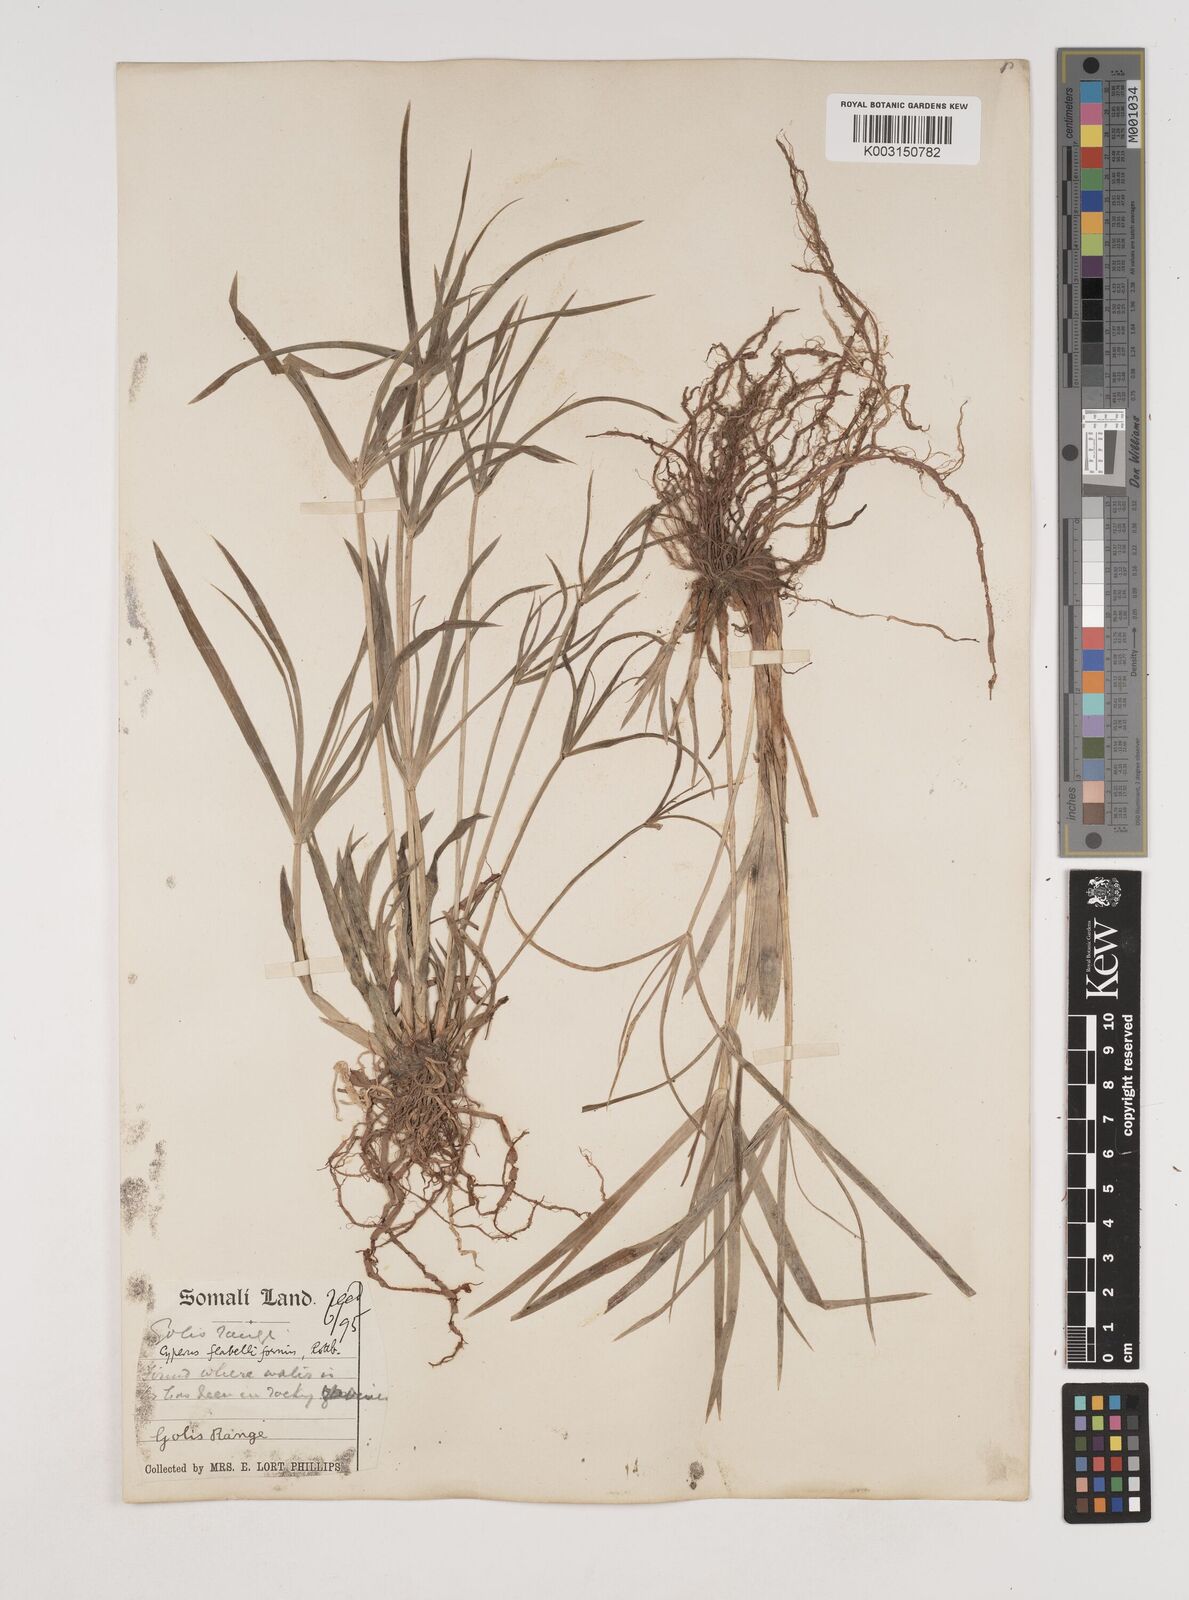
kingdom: Plantae
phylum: Tracheophyta
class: Liliopsida
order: Poales
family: Cyperaceae
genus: Cyperus
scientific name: Cyperus alternifolius
